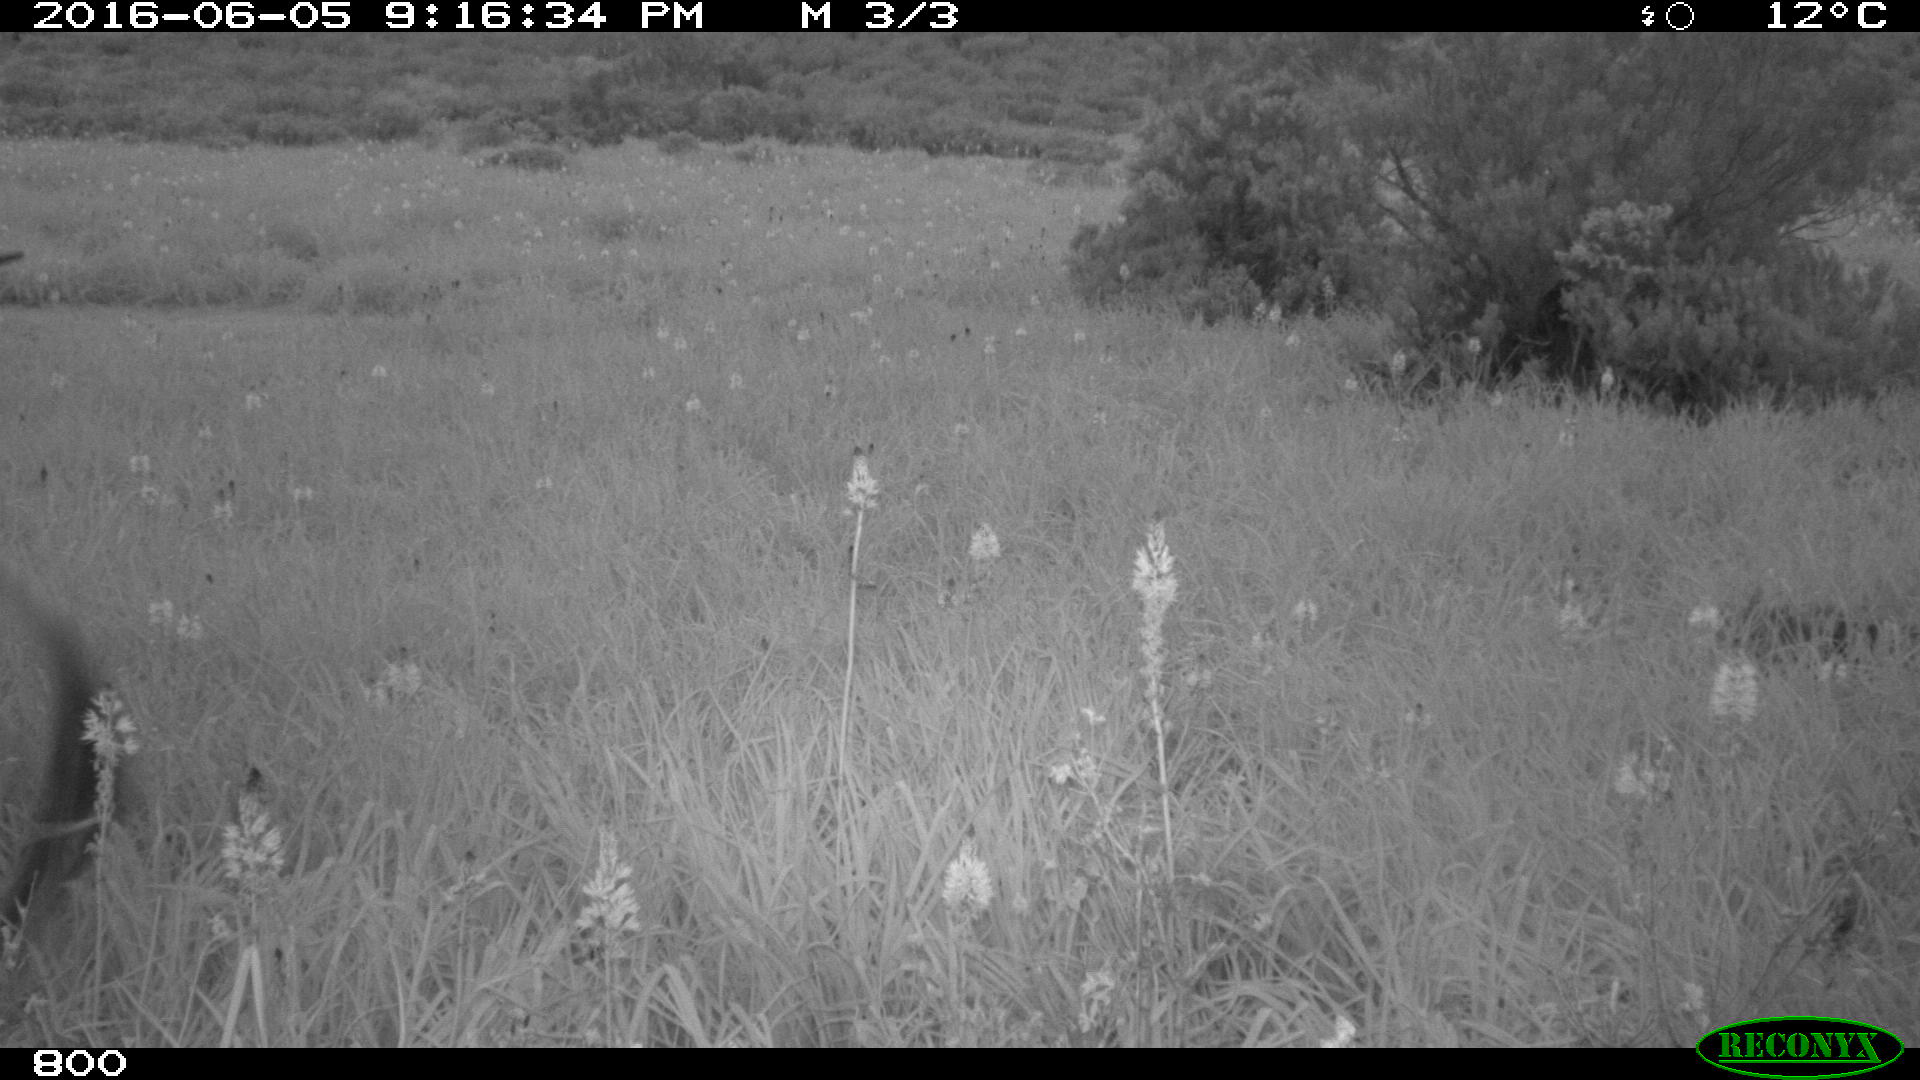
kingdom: Animalia
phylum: Chordata
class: Mammalia
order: Artiodactyla
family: Bovidae
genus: Bos
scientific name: Bos taurus
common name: Domesticated cattle
